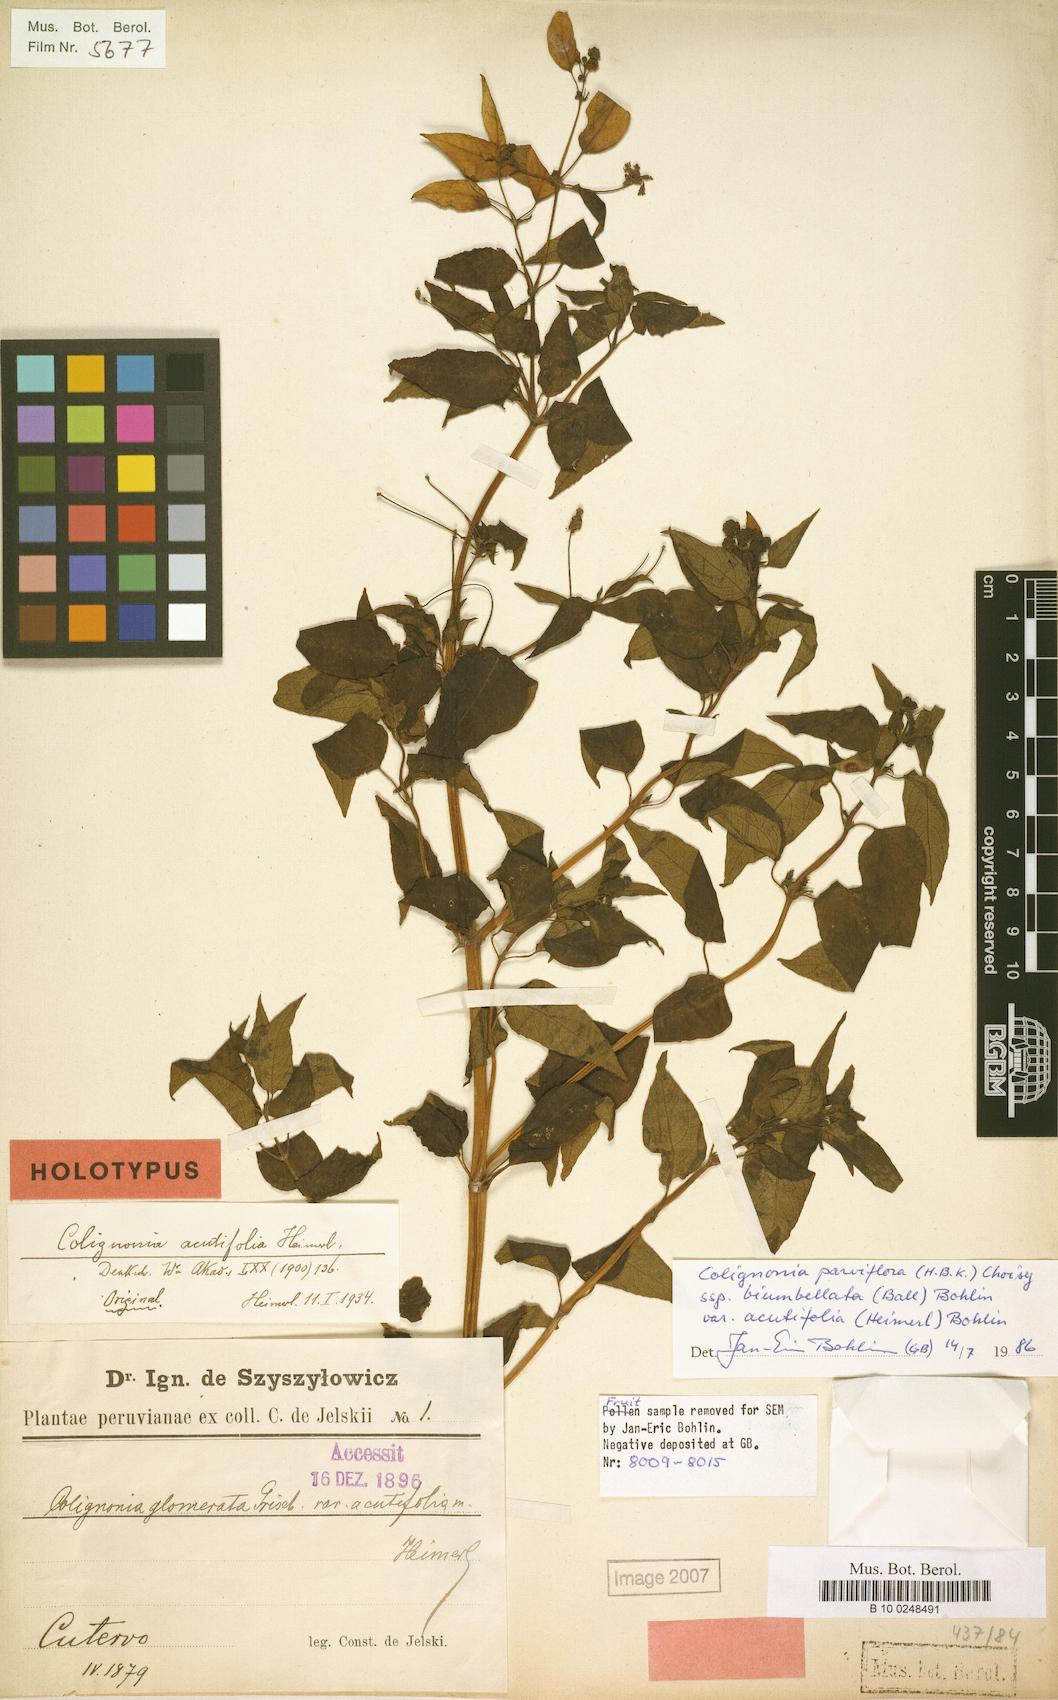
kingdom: Plantae
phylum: Tracheophyta
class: Magnoliopsida
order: Caryophyllales
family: Nyctaginaceae
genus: Colignonia
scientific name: Colignonia parviflora
